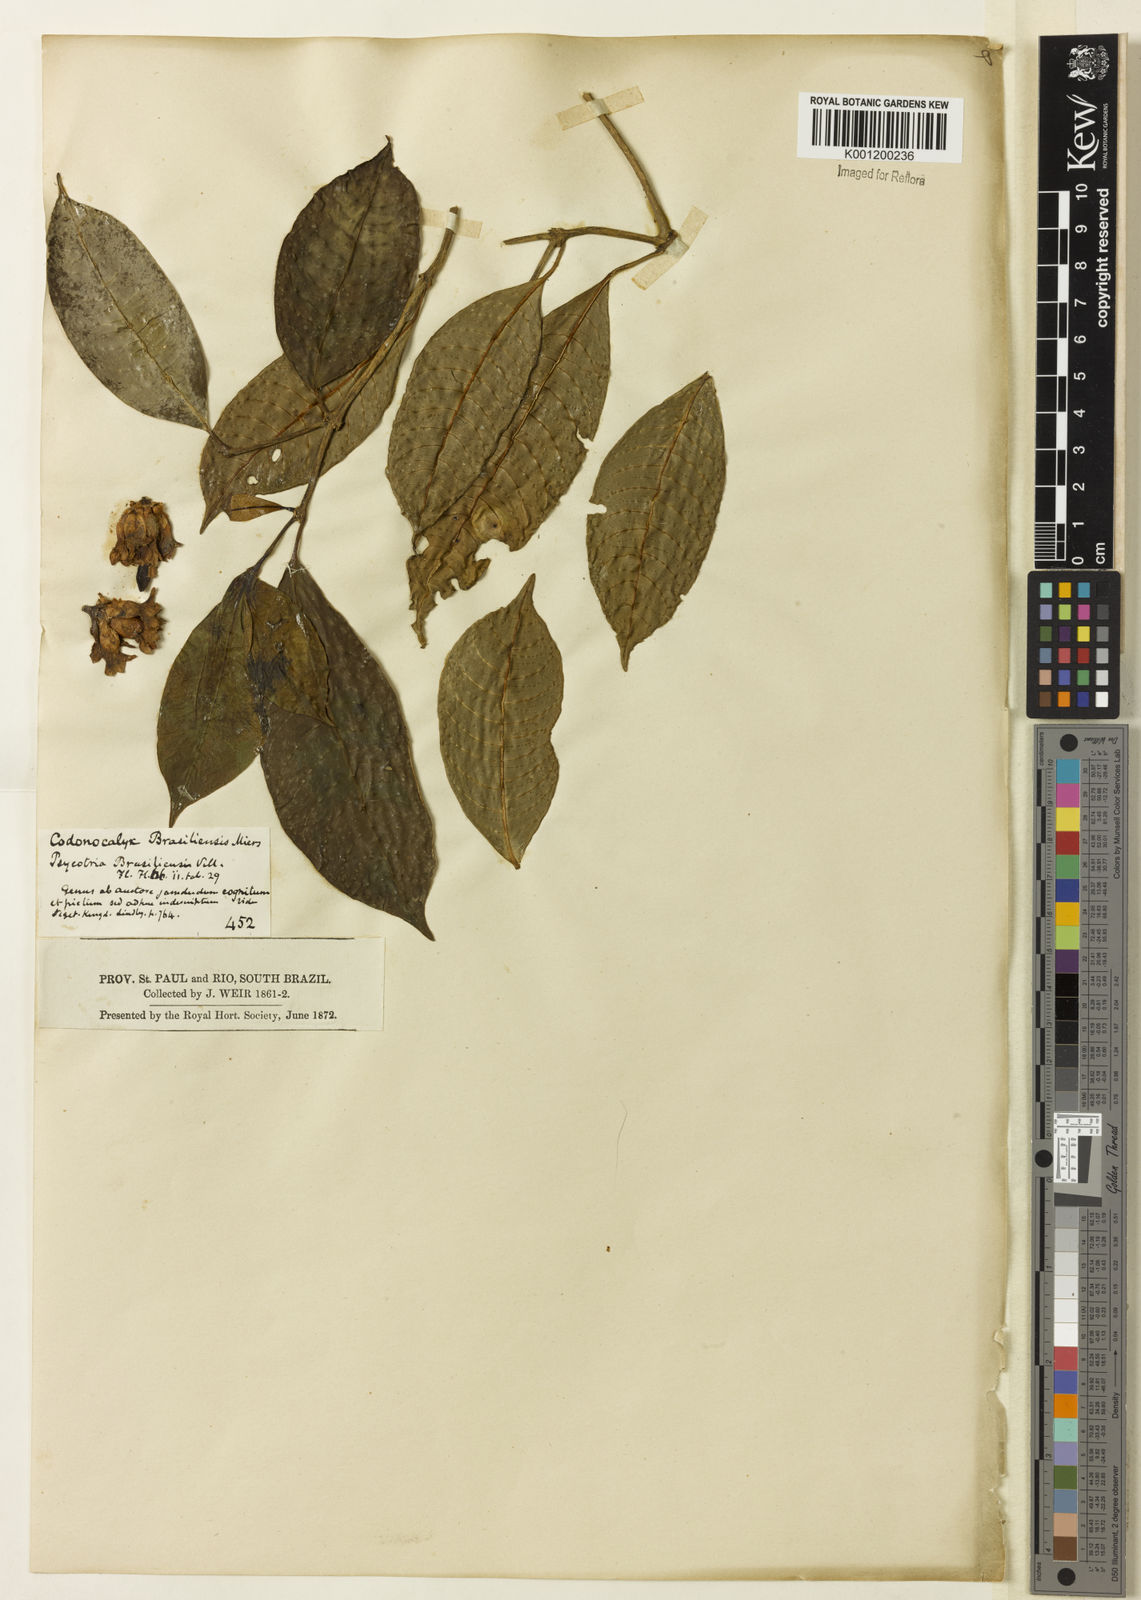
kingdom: Plantae
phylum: Tracheophyta
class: Magnoliopsida
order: Gentianales
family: Rubiaceae
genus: Psychotria
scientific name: Psychotria nuda
